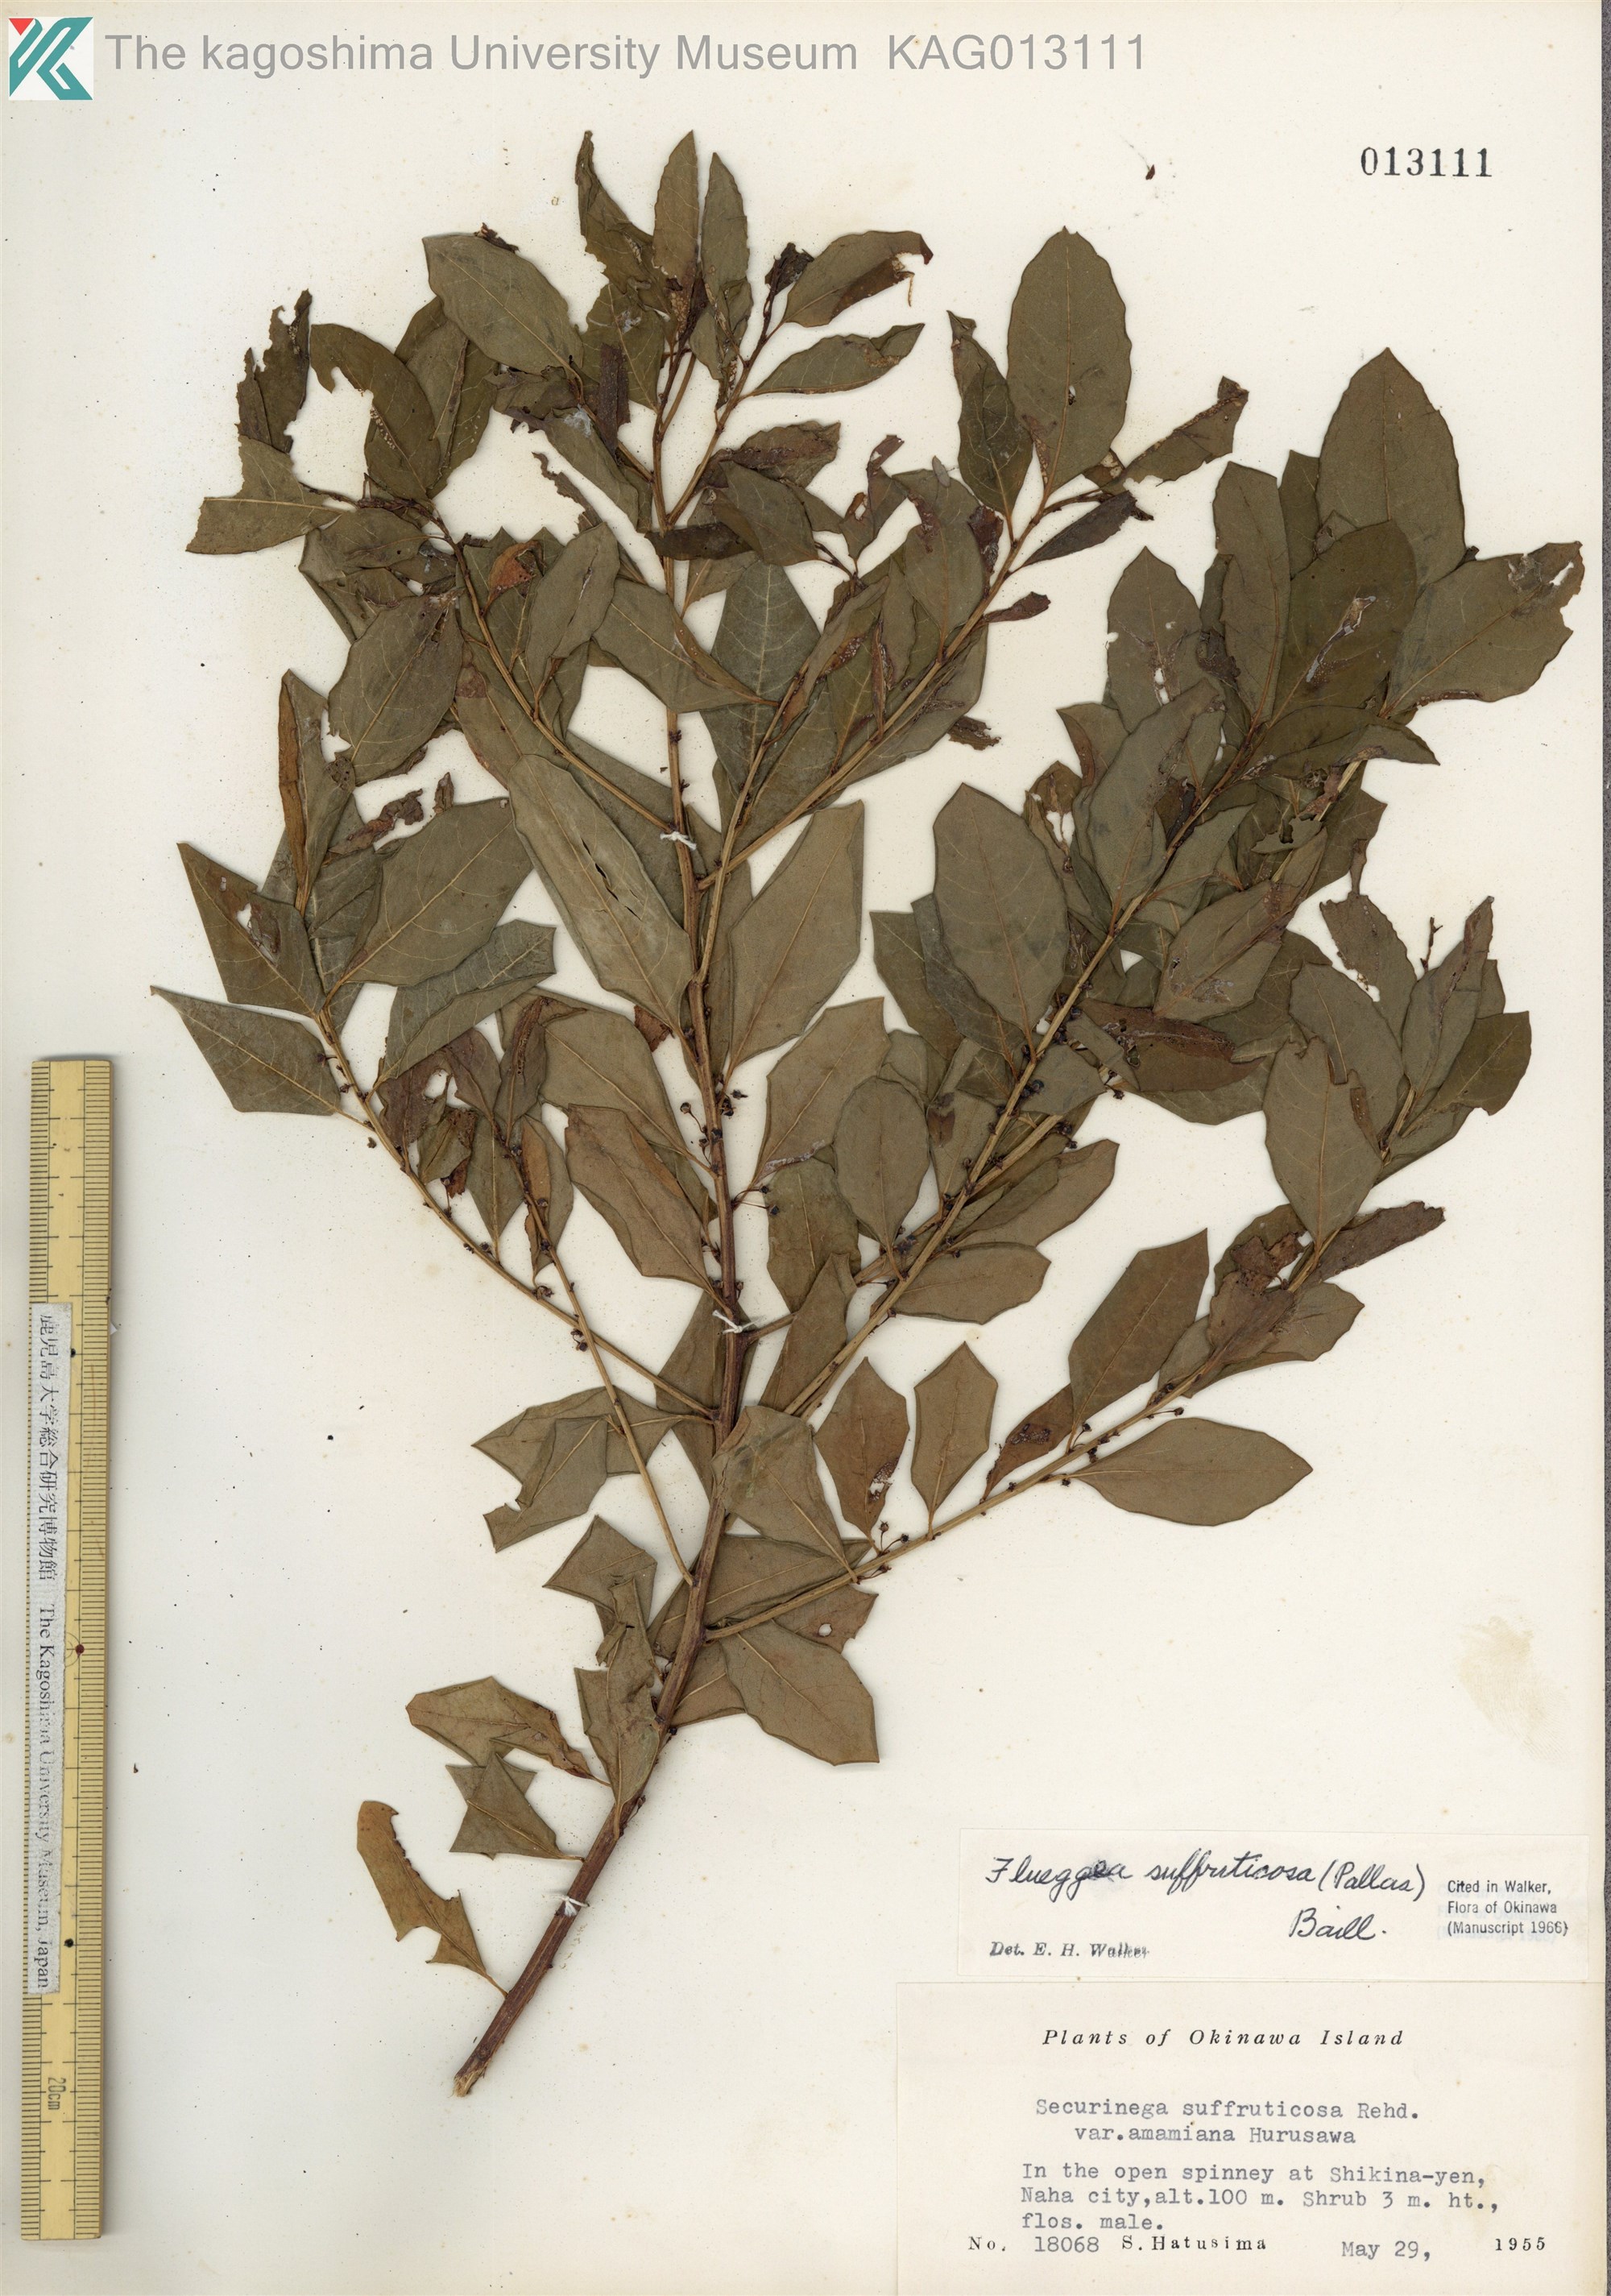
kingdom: Plantae
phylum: Tracheophyta
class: Magnoliopsida
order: Malpighiales
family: Phyllanthaceae
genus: Flueggea
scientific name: Flueggea suffruticosa
